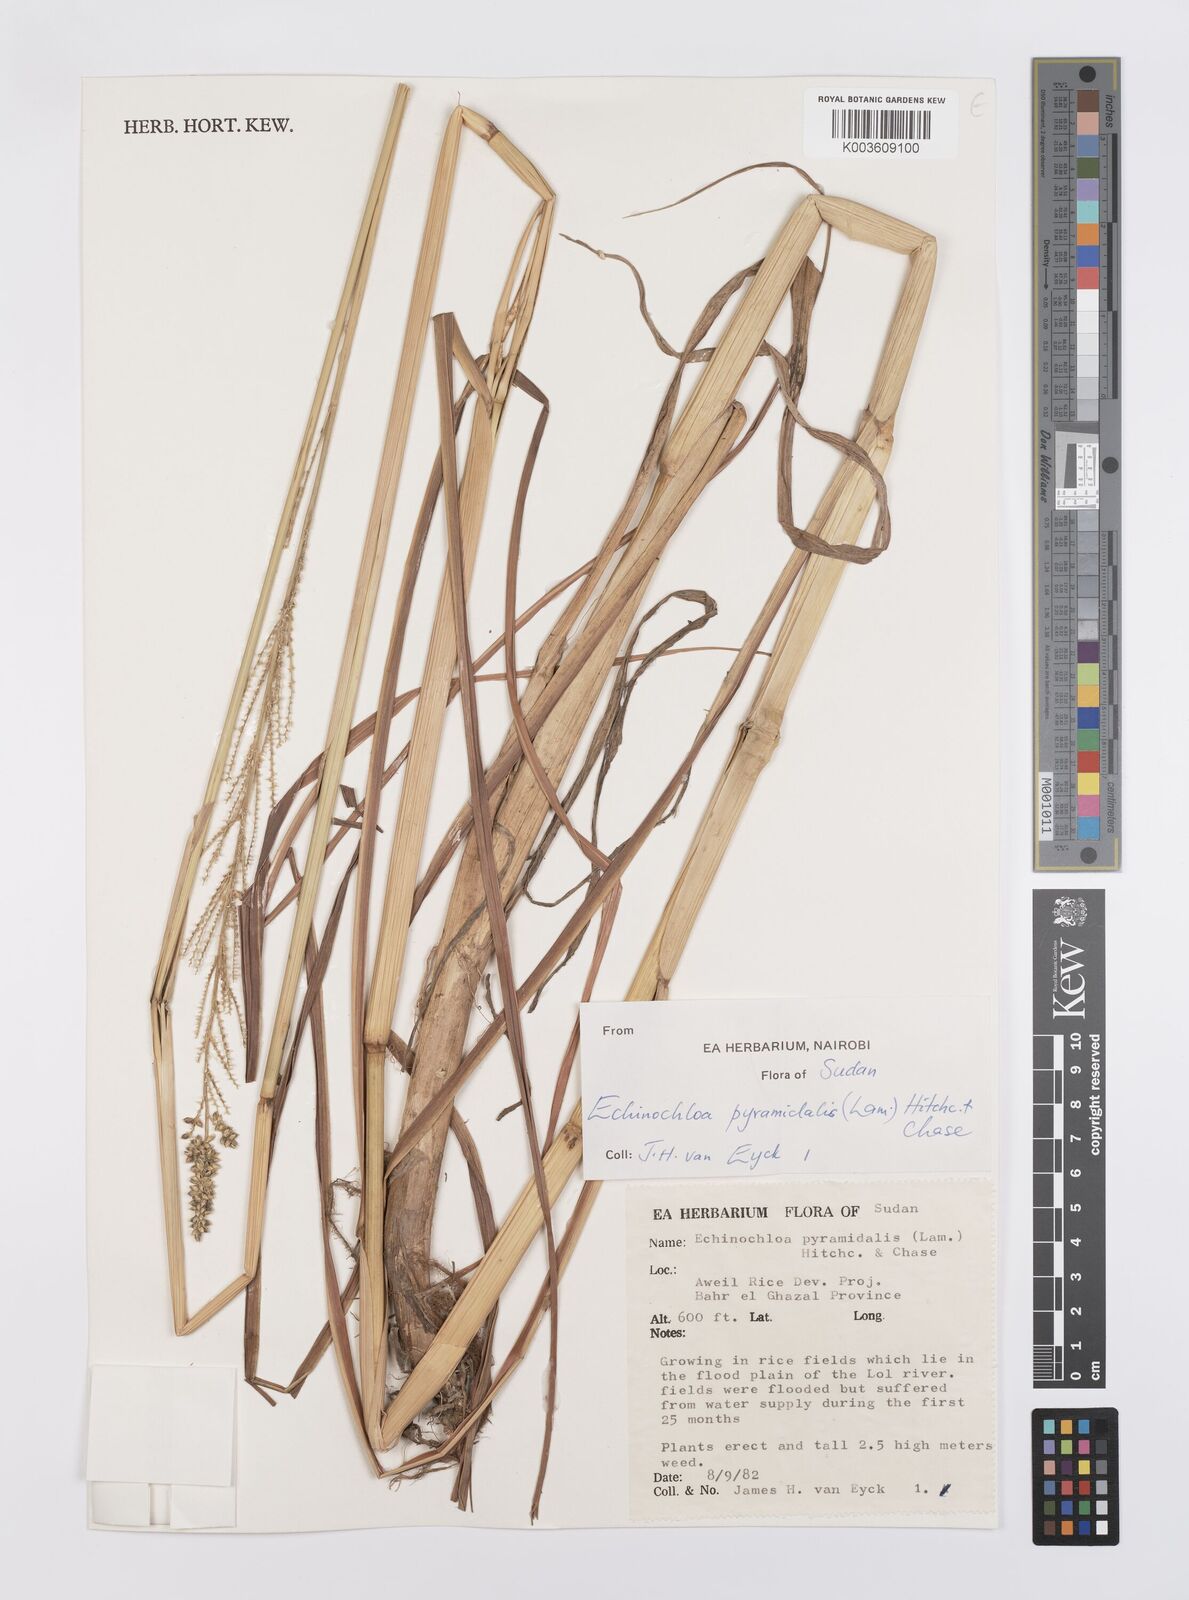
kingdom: Plantae
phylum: Tracheophyta
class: Liliopsida
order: Poales
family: Poaceae
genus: Echinochloa
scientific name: Echinochloa pyramidalis
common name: Antelope grass
